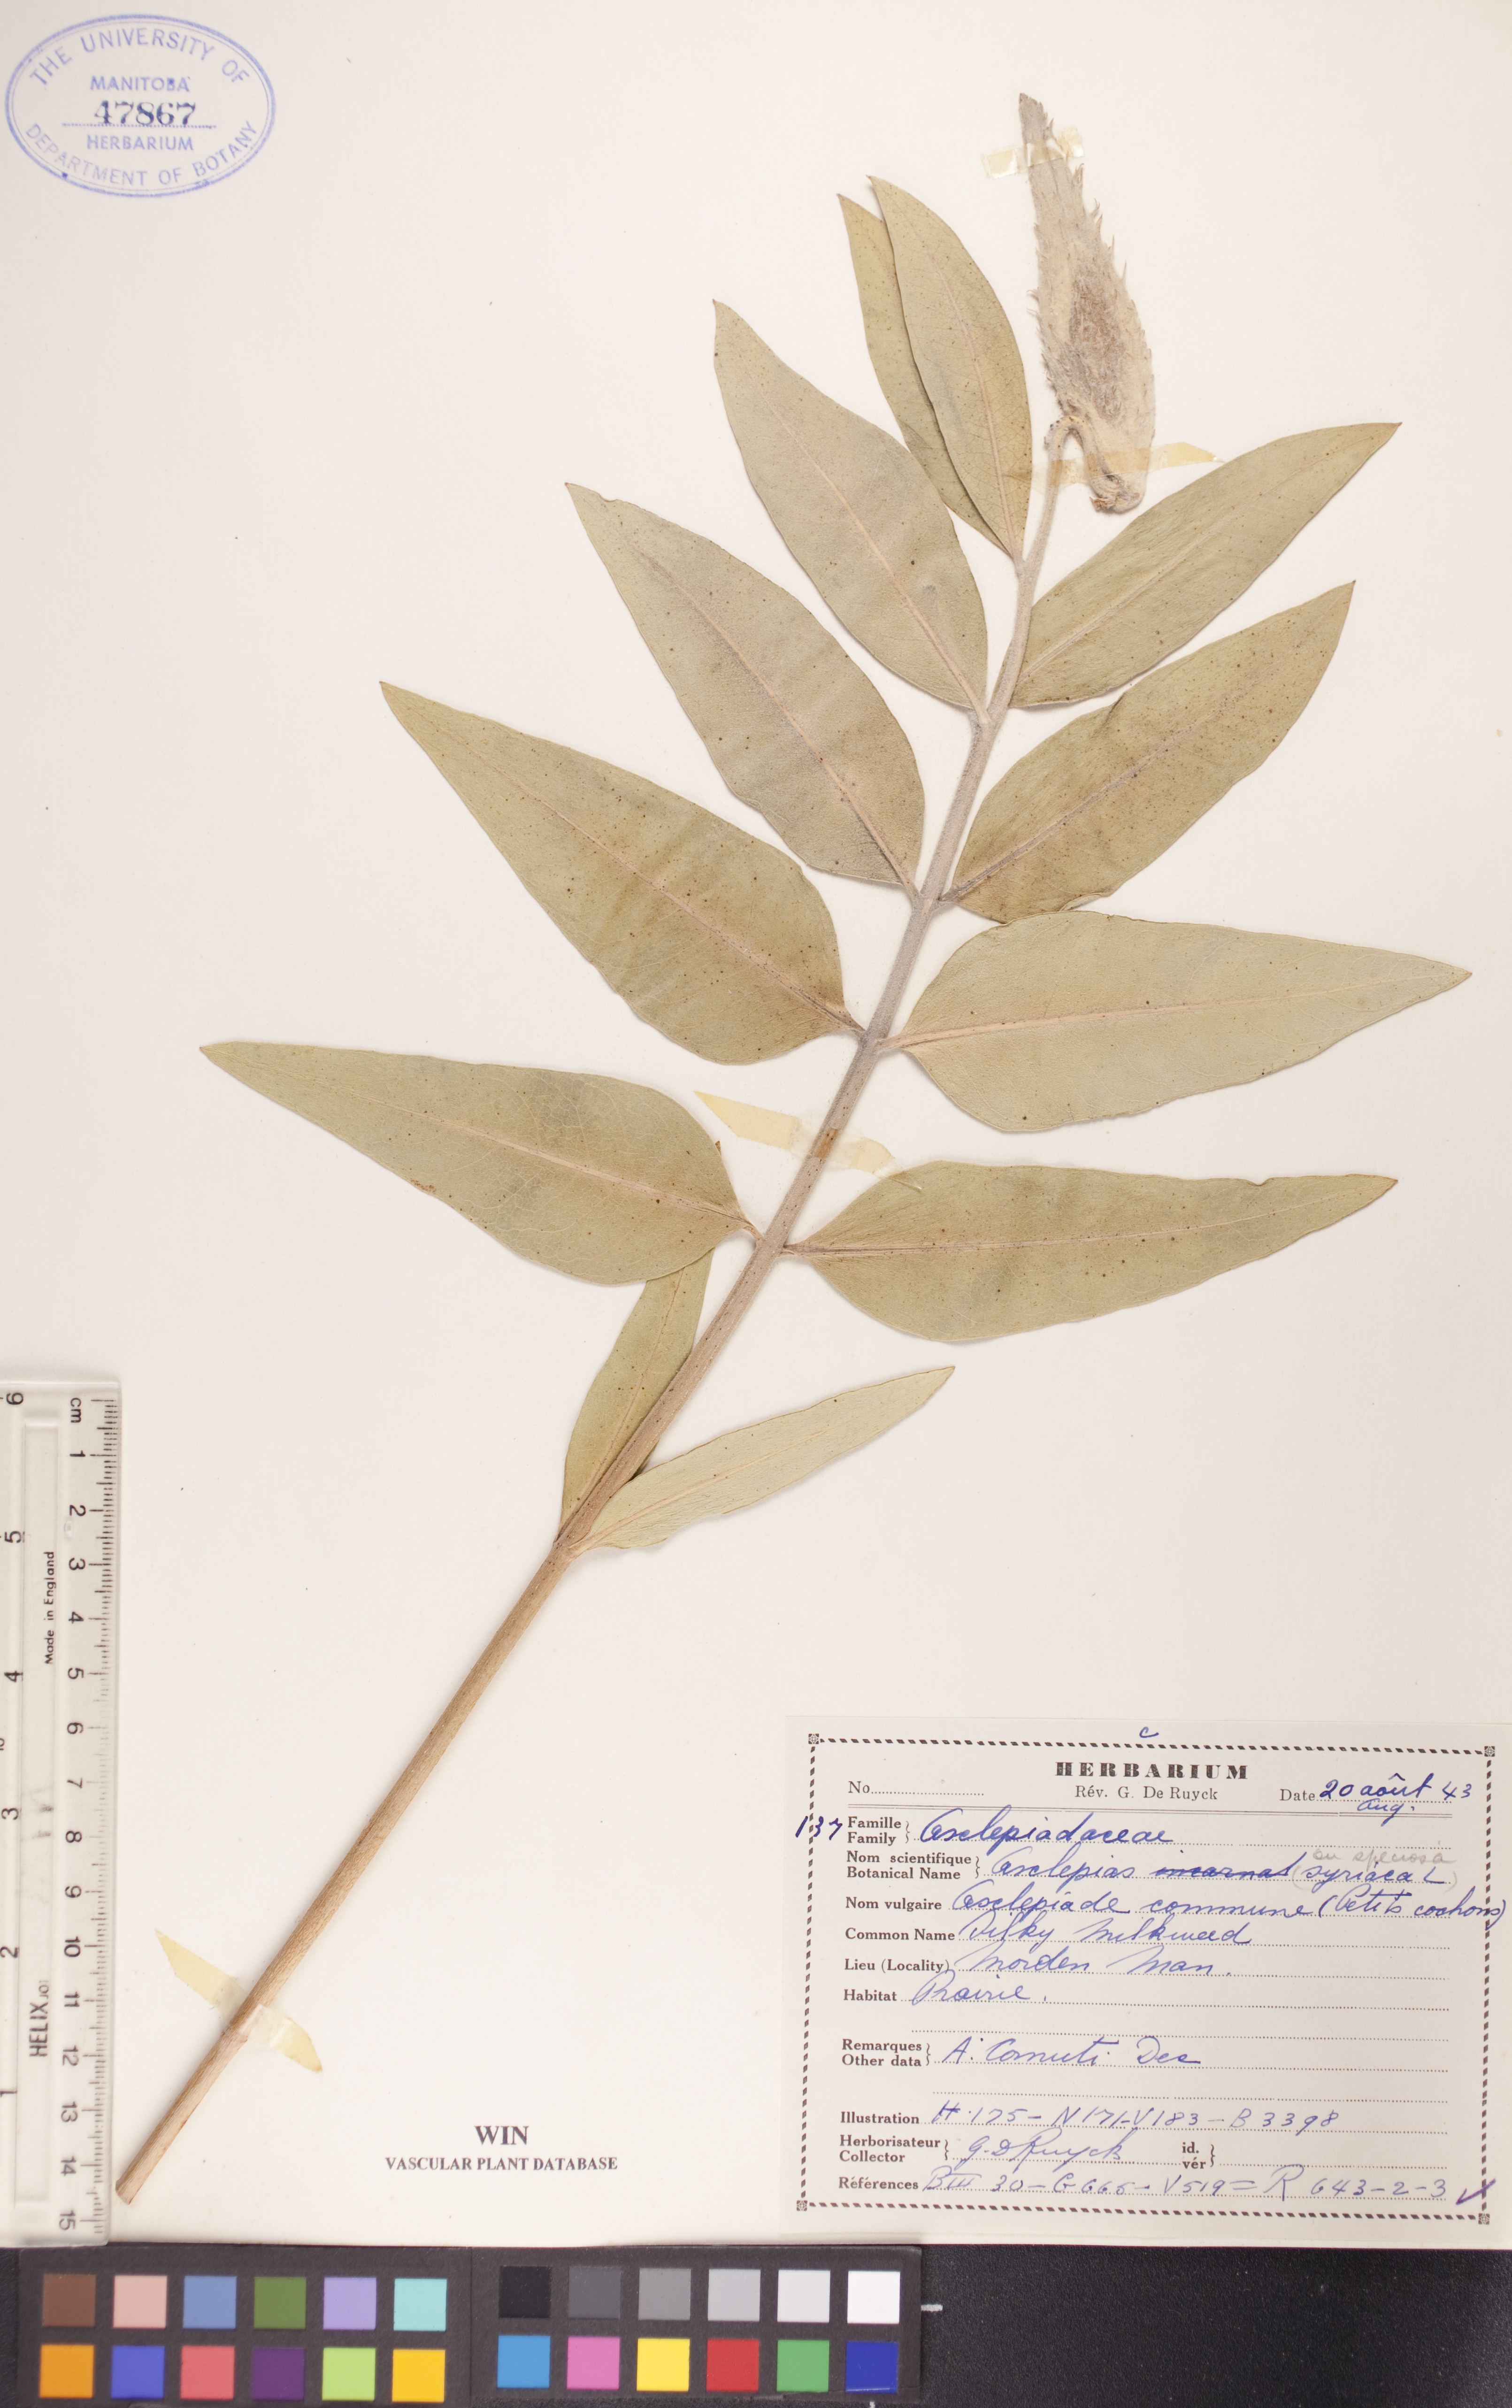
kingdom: Plantae
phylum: Tracheophyta
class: Magnoliopsida
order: Gentianales
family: Apocynaceae
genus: Asclepias
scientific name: Asclepias viridiflora
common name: Green comet milkweed
